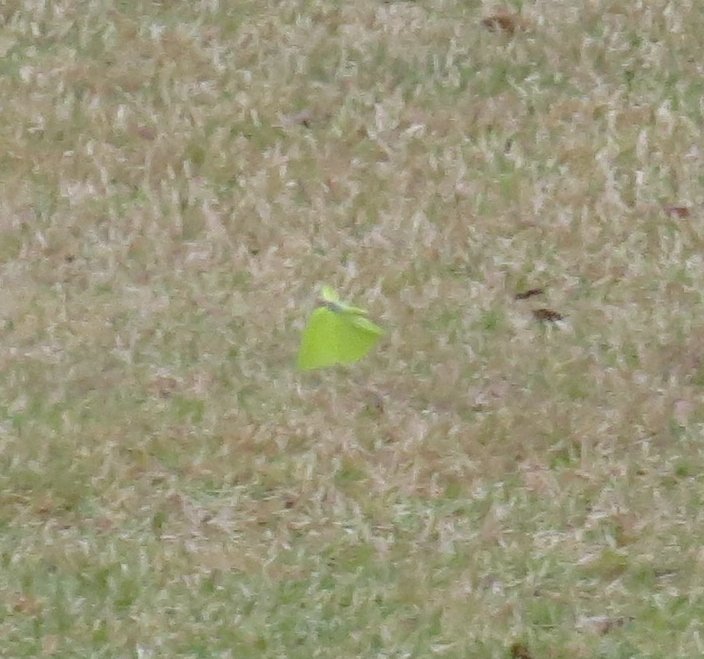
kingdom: Animalia
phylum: Arthropoda
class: Insecta
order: Lepidoptera
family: Pieridae
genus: Phoebis
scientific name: Phoebis sennae
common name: Cloudless Sulphur
